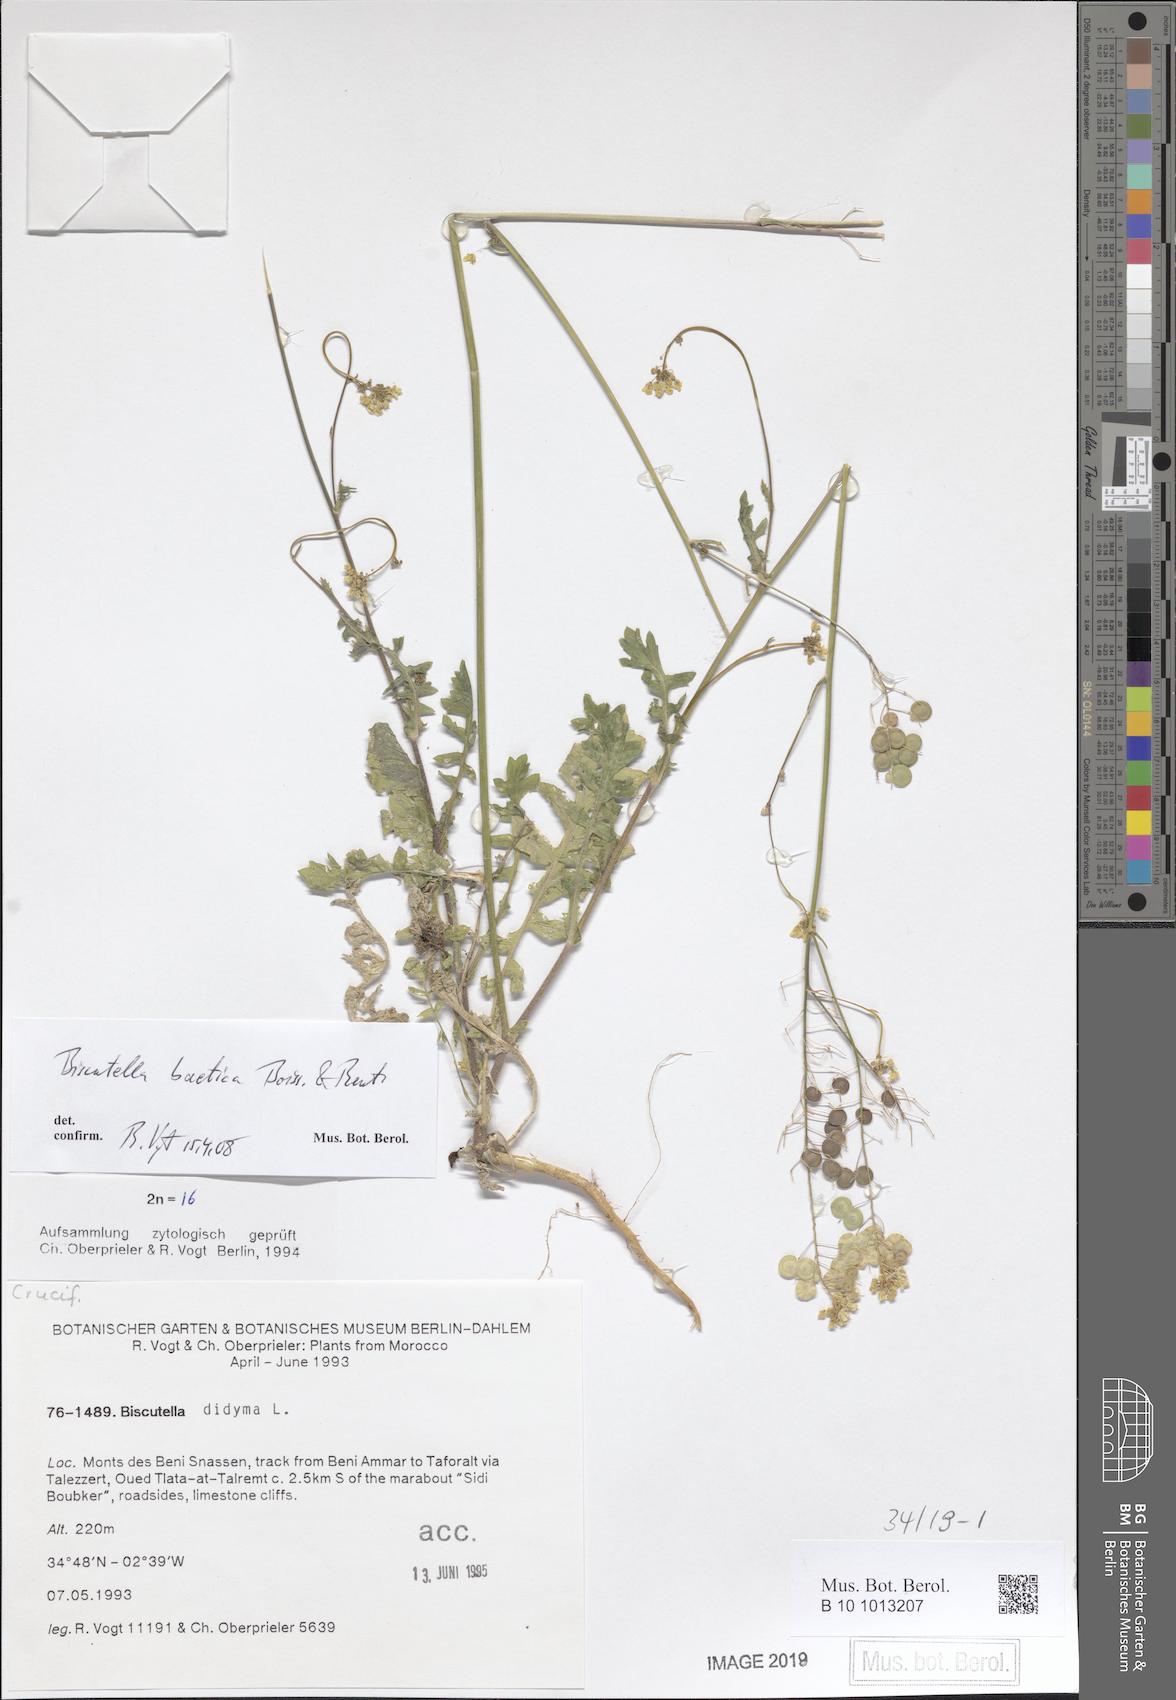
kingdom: Plantae
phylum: Tracheophyta
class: Magnoliopsida
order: Brassicales
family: Brassicaceae
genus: Biscutella
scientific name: Biscutella eriocarpa
